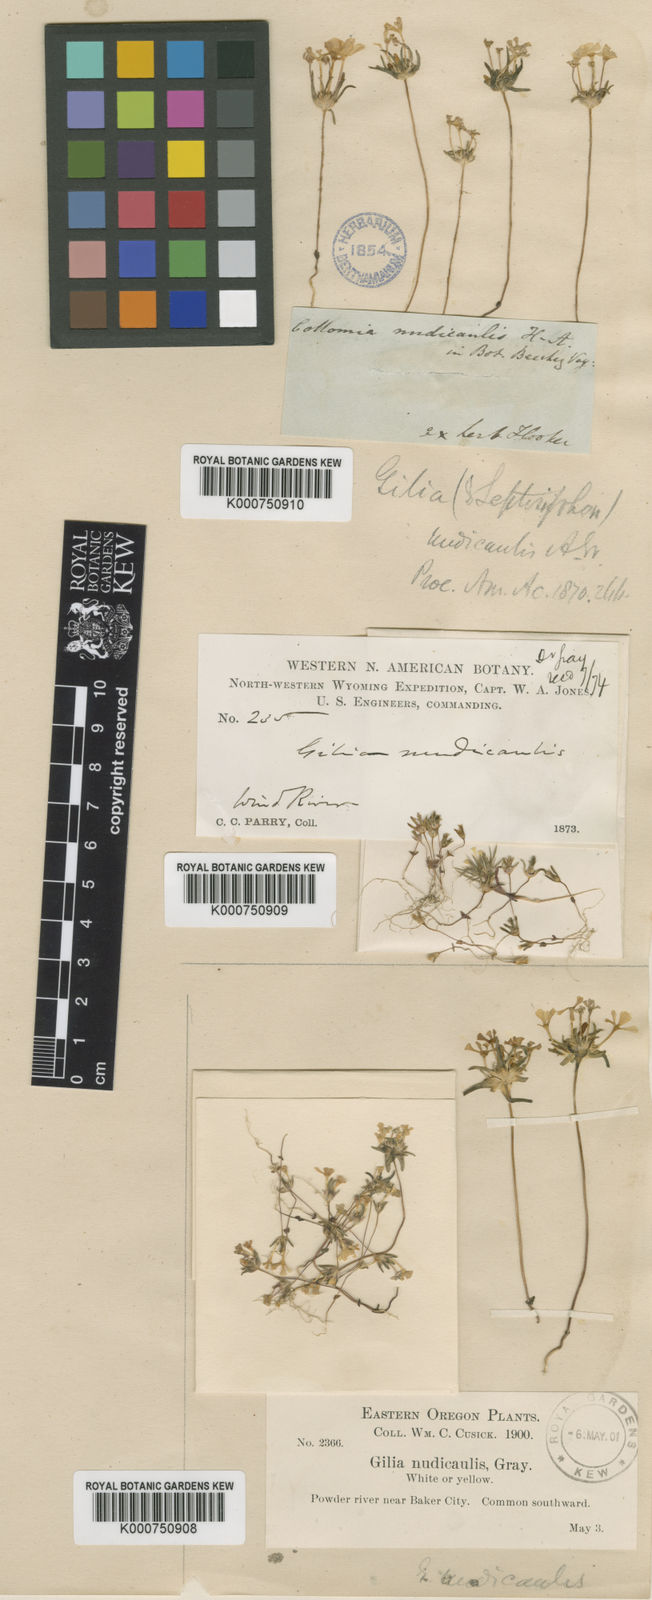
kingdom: Plantae
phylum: Tracheophyta
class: Magnoliopsida
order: Ericales
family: Polemoniaceae
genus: Gymnosteris
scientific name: Gymnosteris nudicaulis
